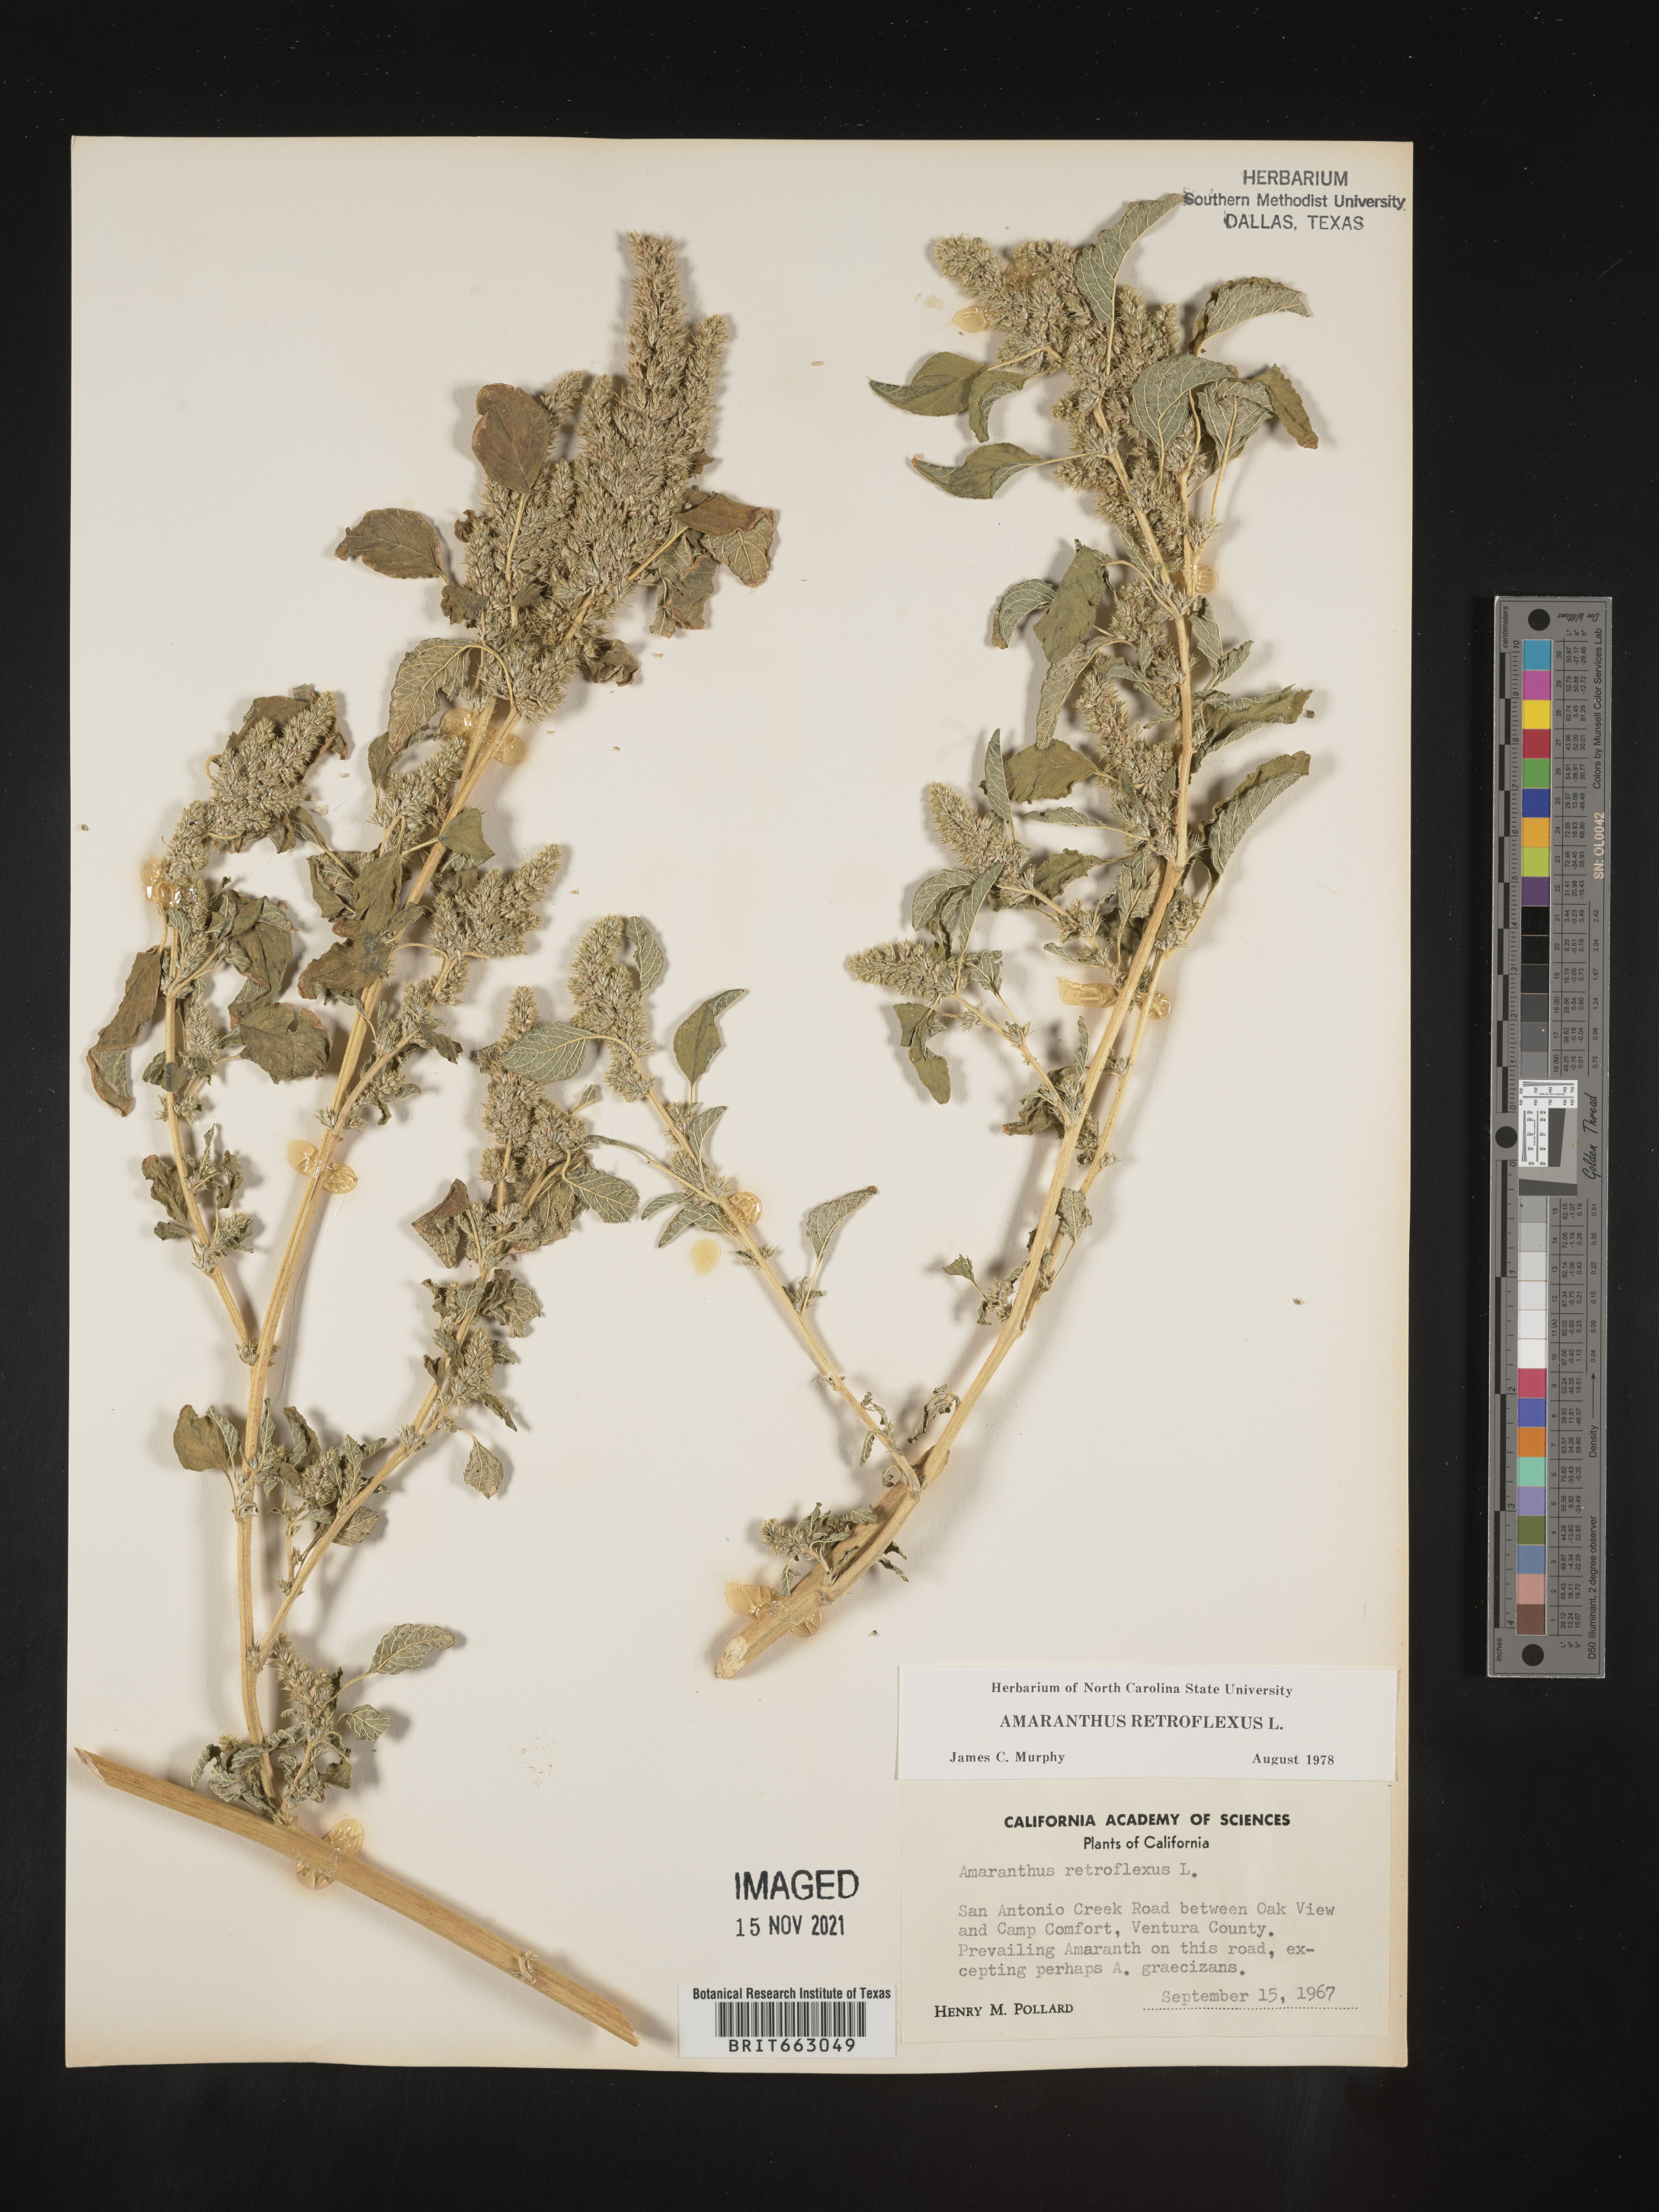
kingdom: Plantae
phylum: Tracheophyta
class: Magnoliopsida
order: Caryophyllales
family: Amaranthaceae
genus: Amaranthus
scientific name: Amaranthus retroflexus
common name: Redroot amaranth
